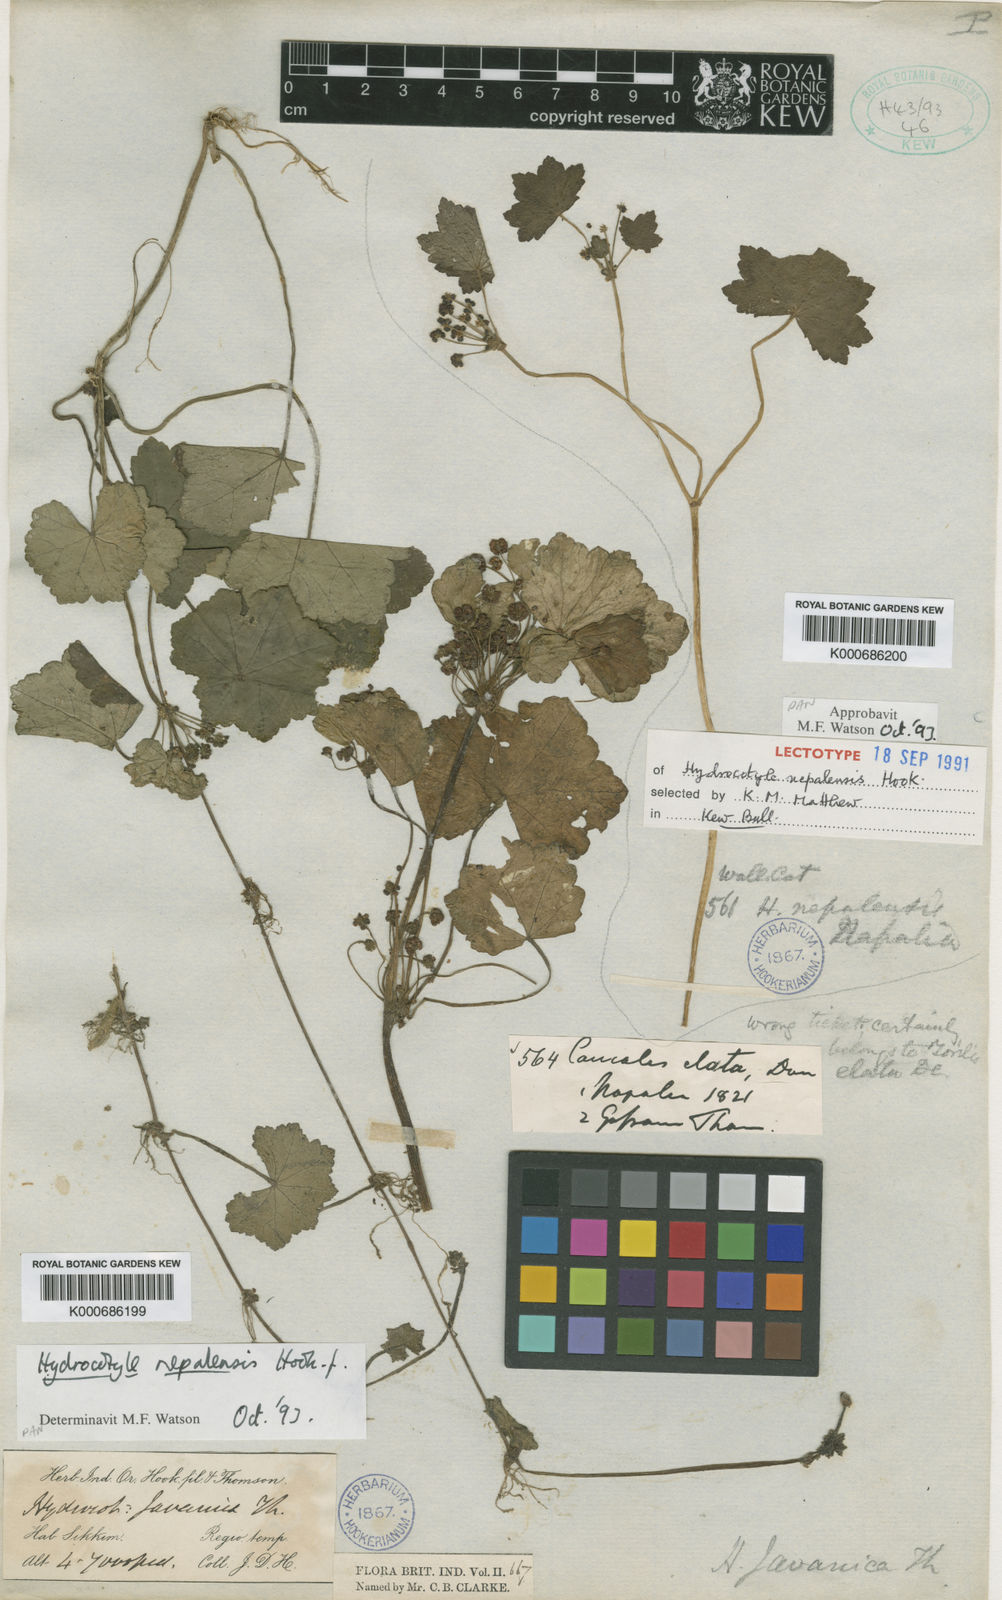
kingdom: Plantae
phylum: Tracheophyta
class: Magnoliopsida
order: Apiales
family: Araliaceae
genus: Hydrocotyle
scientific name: Hydrocotyle nepalensis
